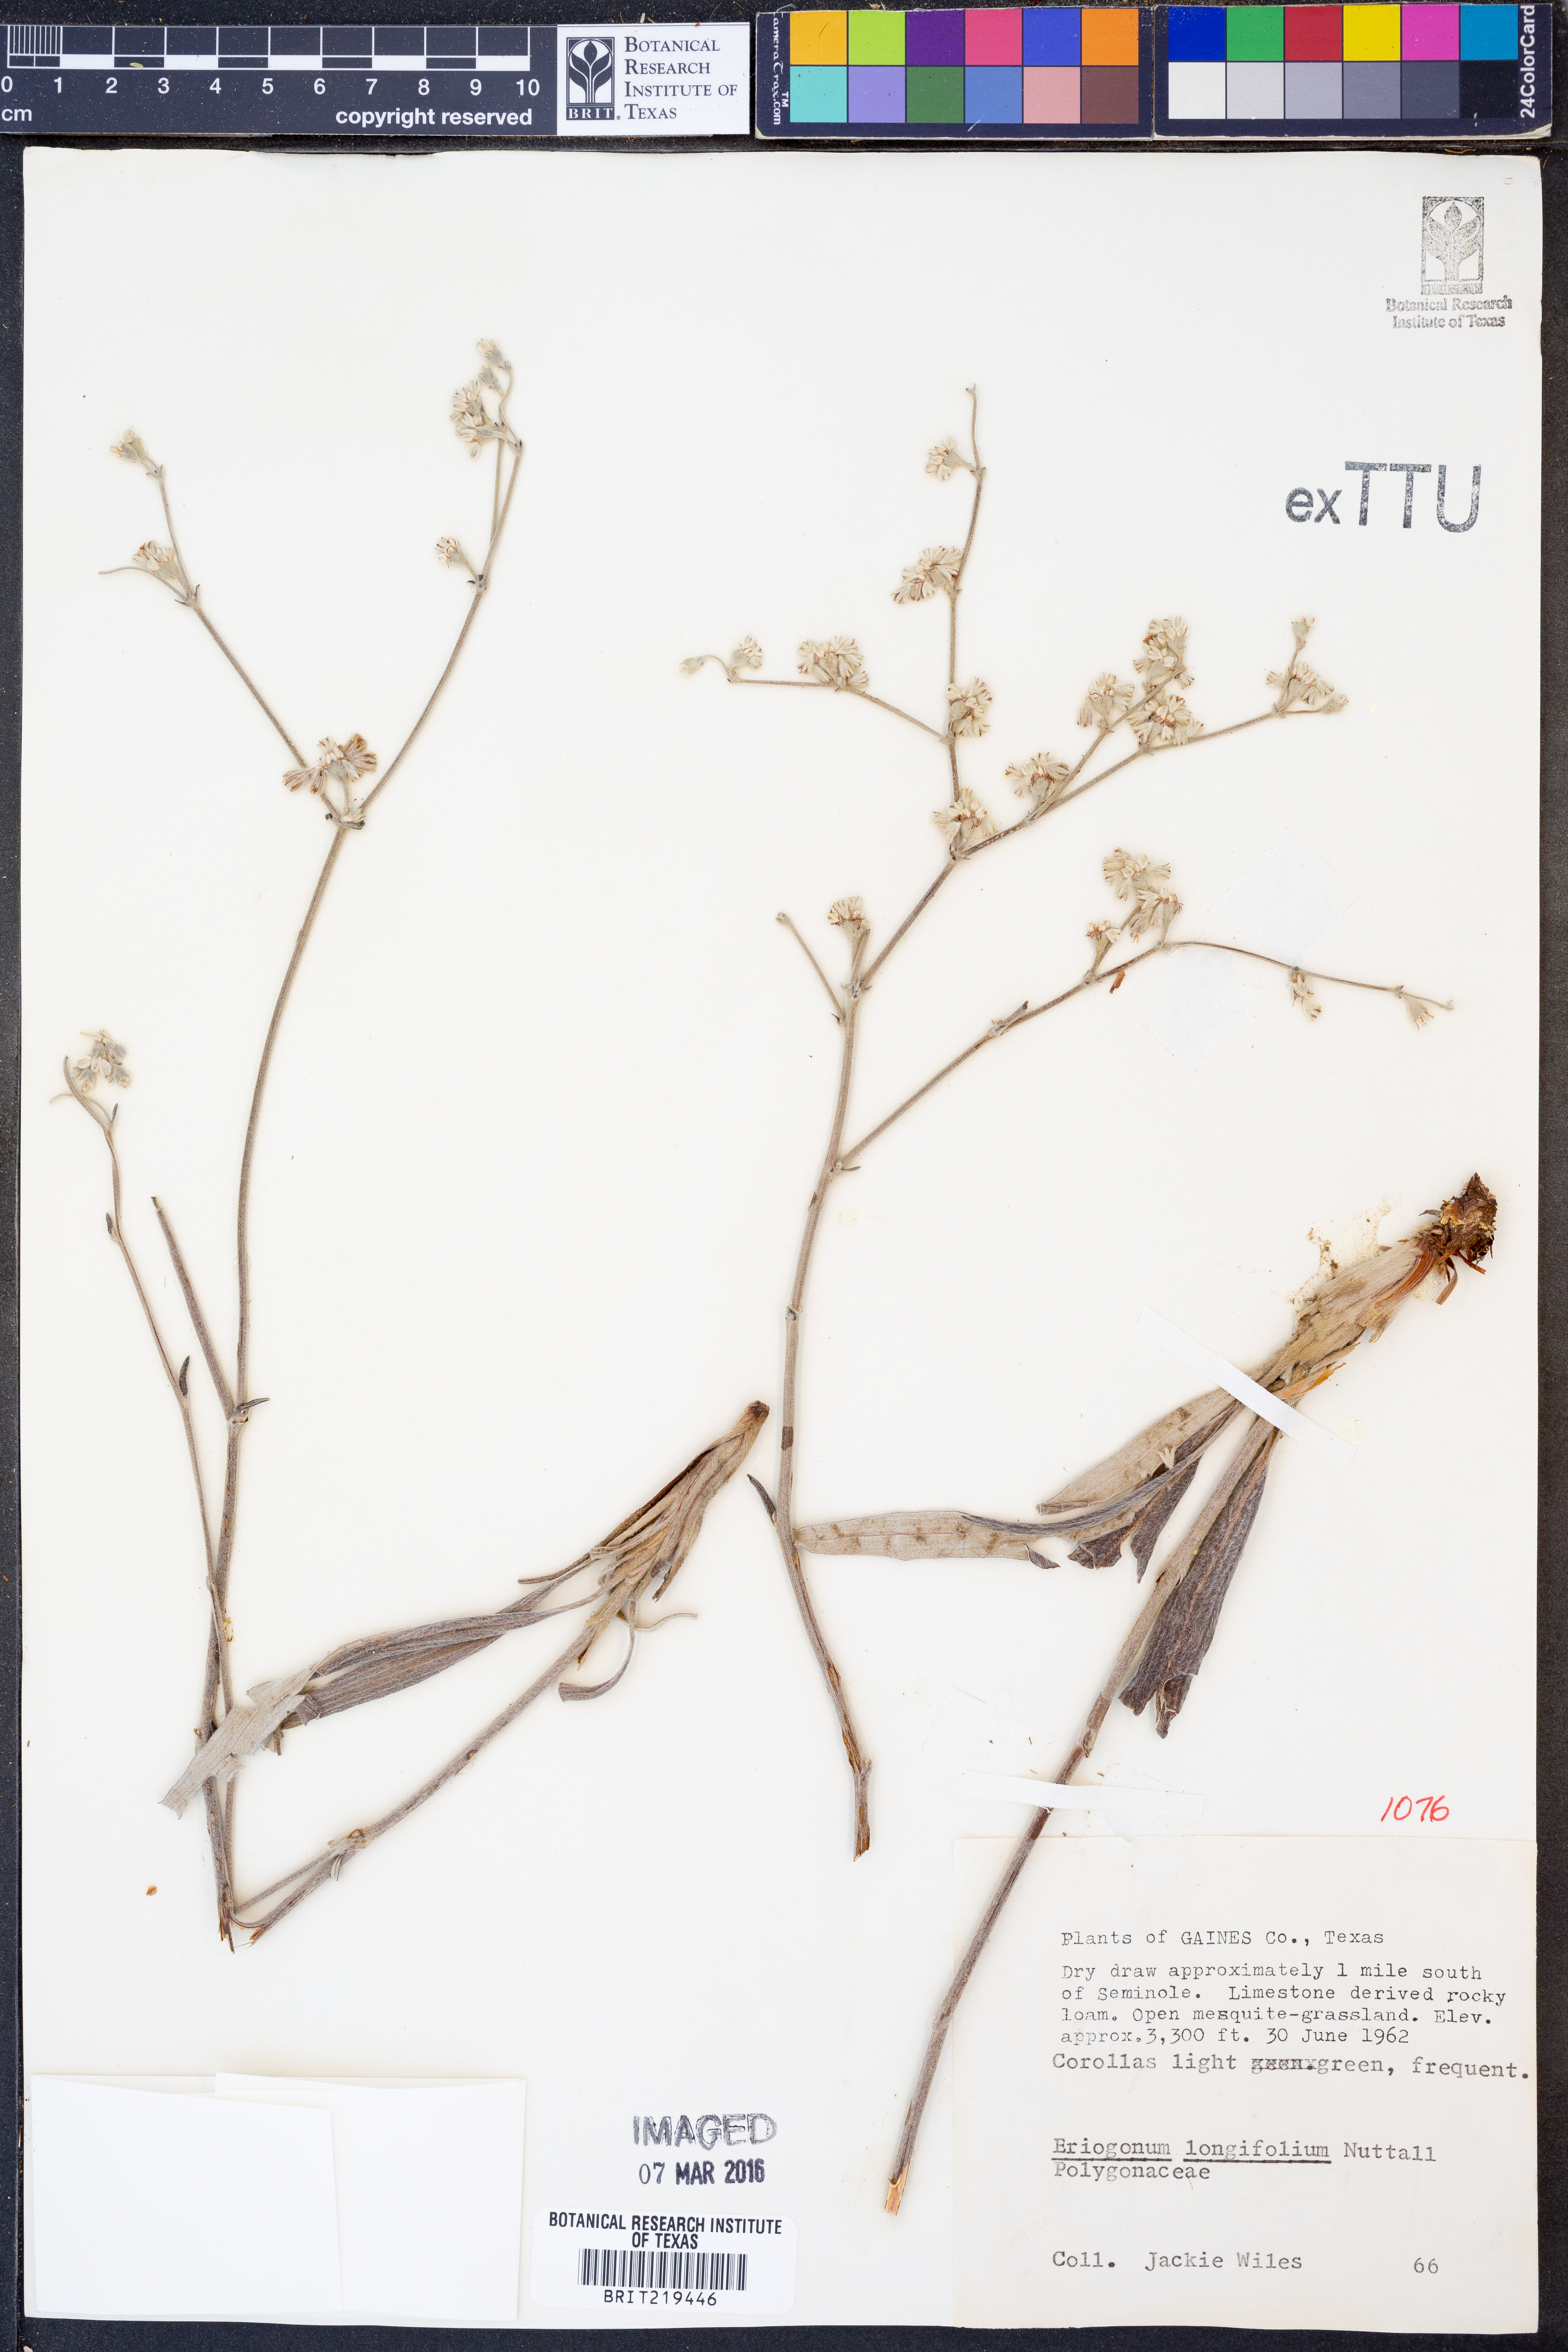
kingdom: Plantae
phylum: Tracheophyta
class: Magnoliopsida
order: Caryophyllales
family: Polygonaceae
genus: Eriogonum
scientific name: Eriogonum longifolium
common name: Longleaf wild buckwheat
